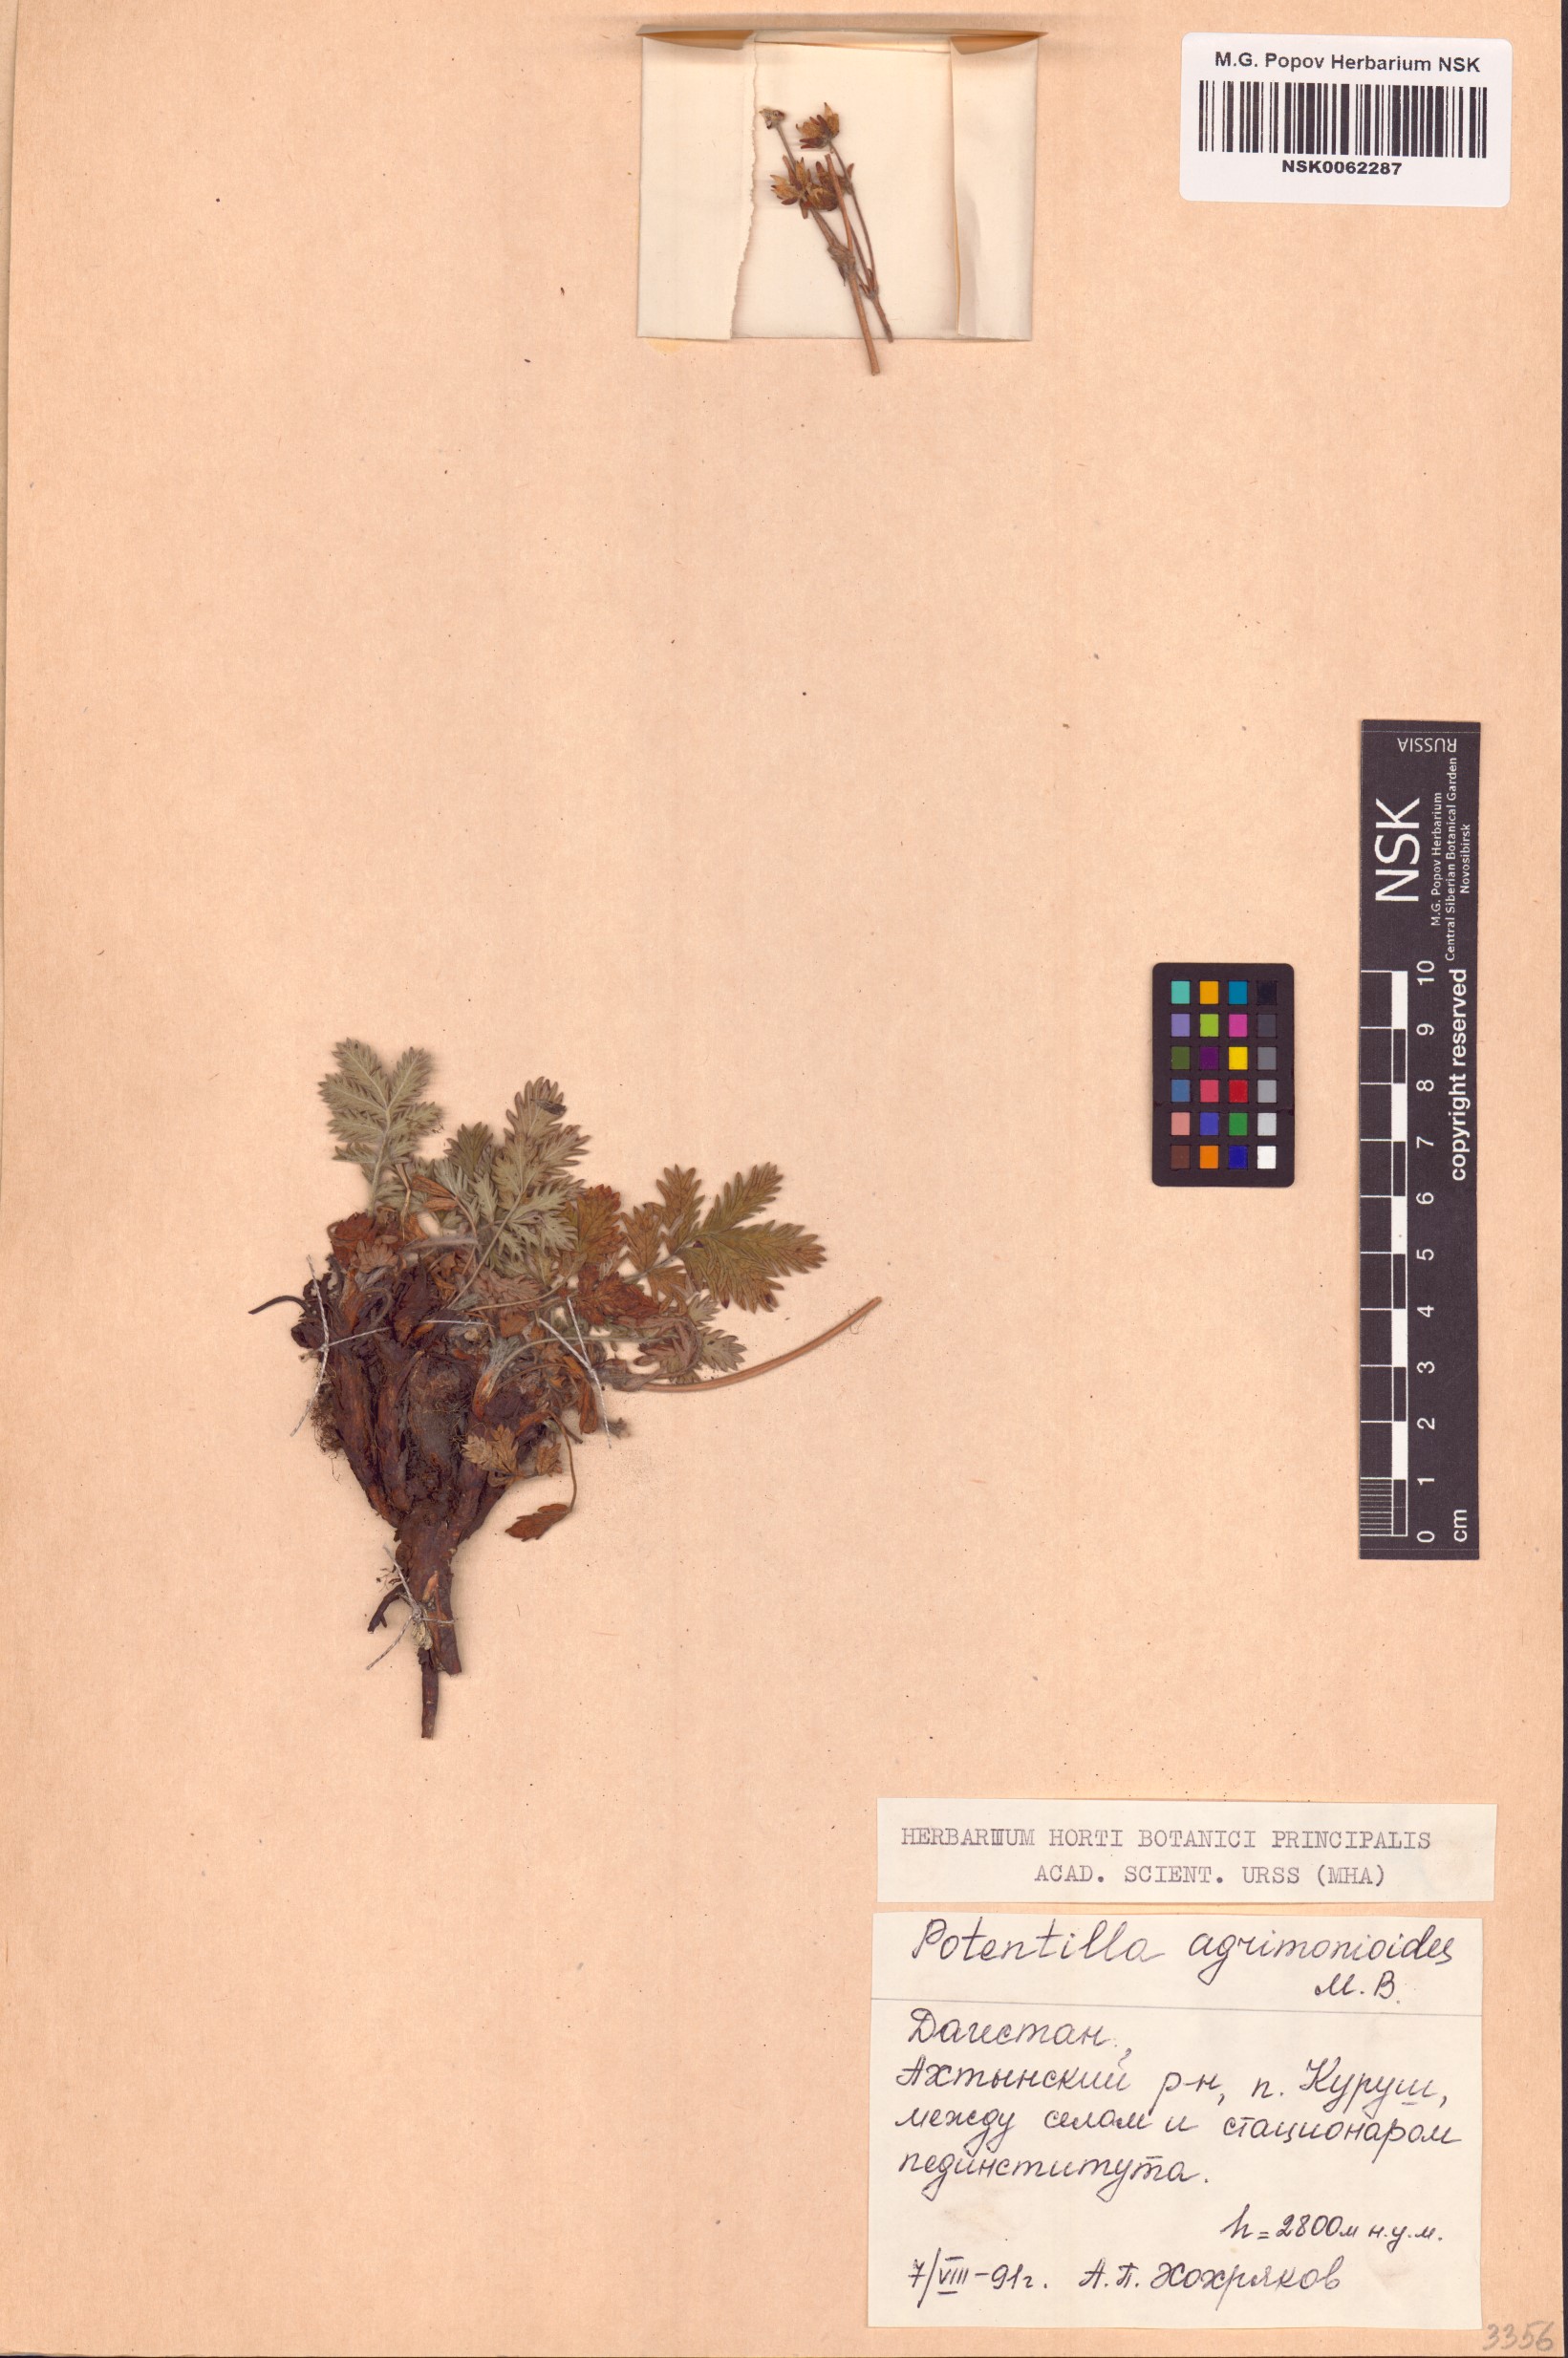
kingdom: Plantae
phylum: Tracheophyta
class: Magnoliopsida
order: Rosales
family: Rosaceae
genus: Potentilla
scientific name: Potentilla agrimonioides
